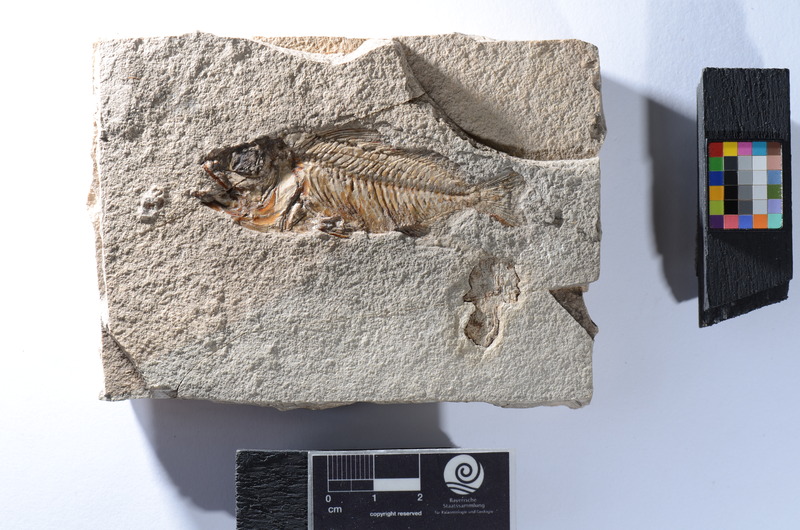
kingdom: Animalia
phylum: Chordata
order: Beryciformes
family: Holocentridae
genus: Berybolcensis
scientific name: Berybolcensis leptacanthus
